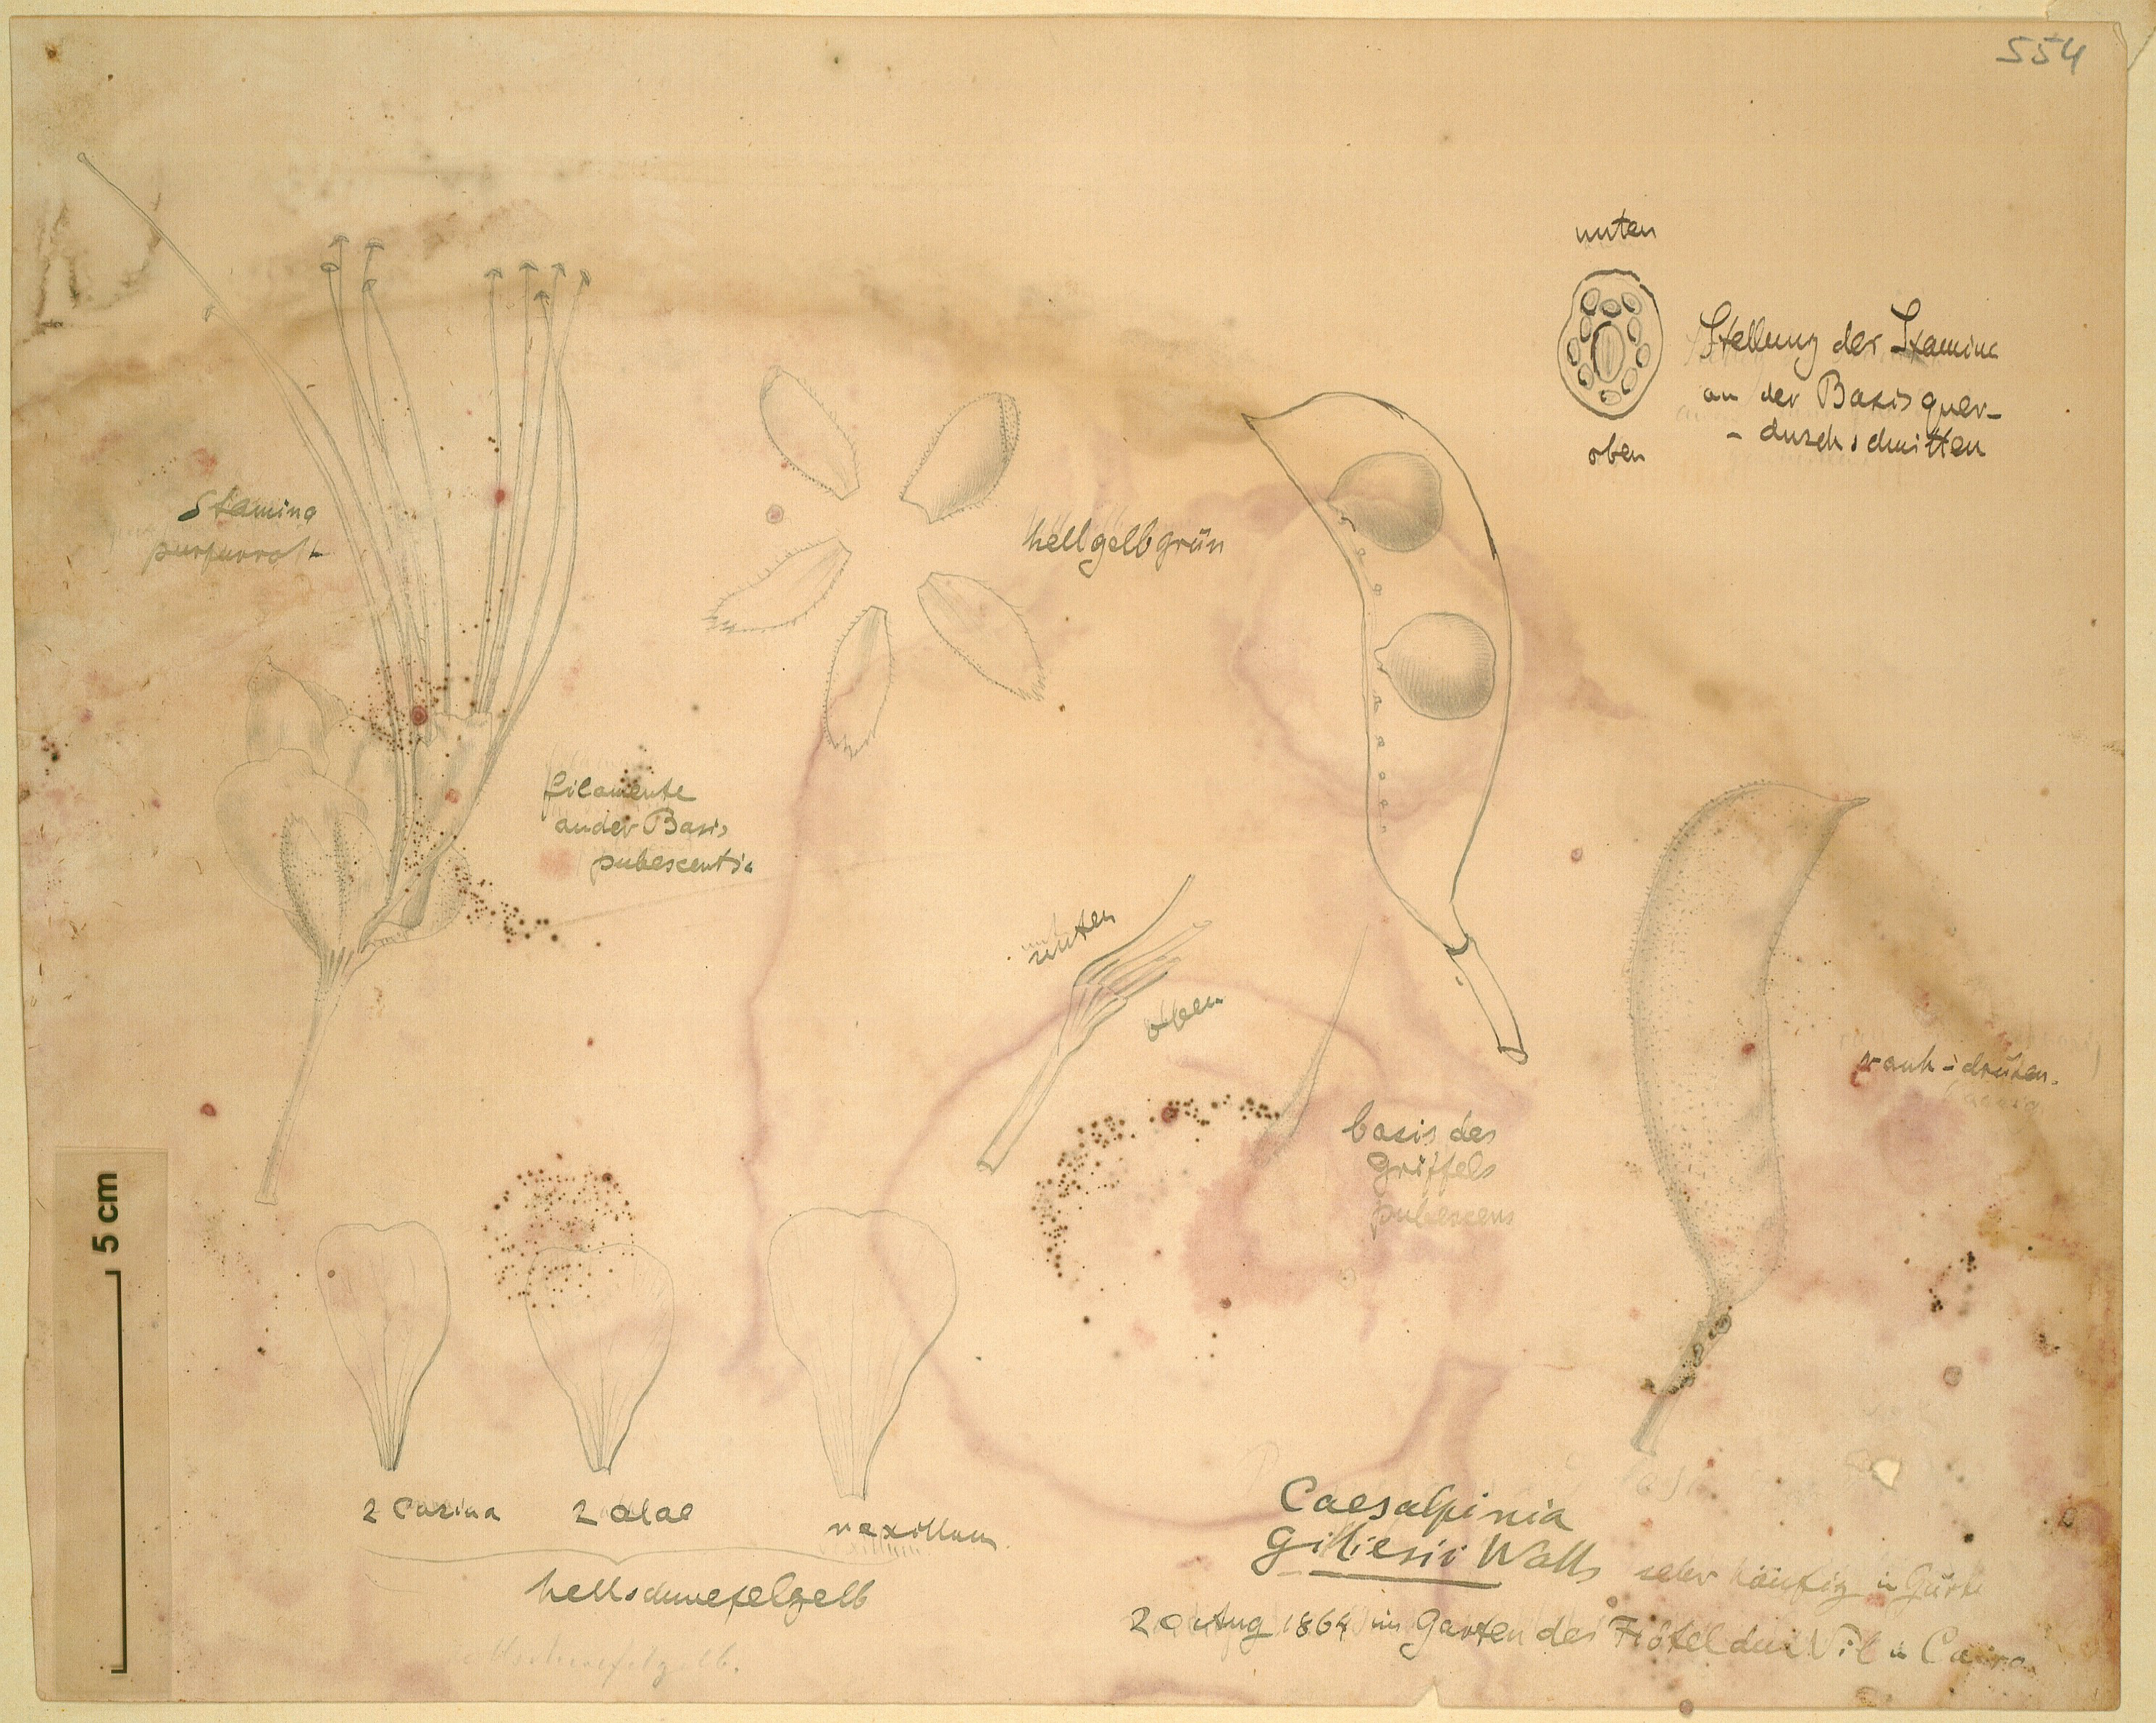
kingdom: Plantae
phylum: Tracheophyta
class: Magnoliopsida
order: Fabales
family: Fabaceae
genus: Erythrostemon
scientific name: Erythrostemon
